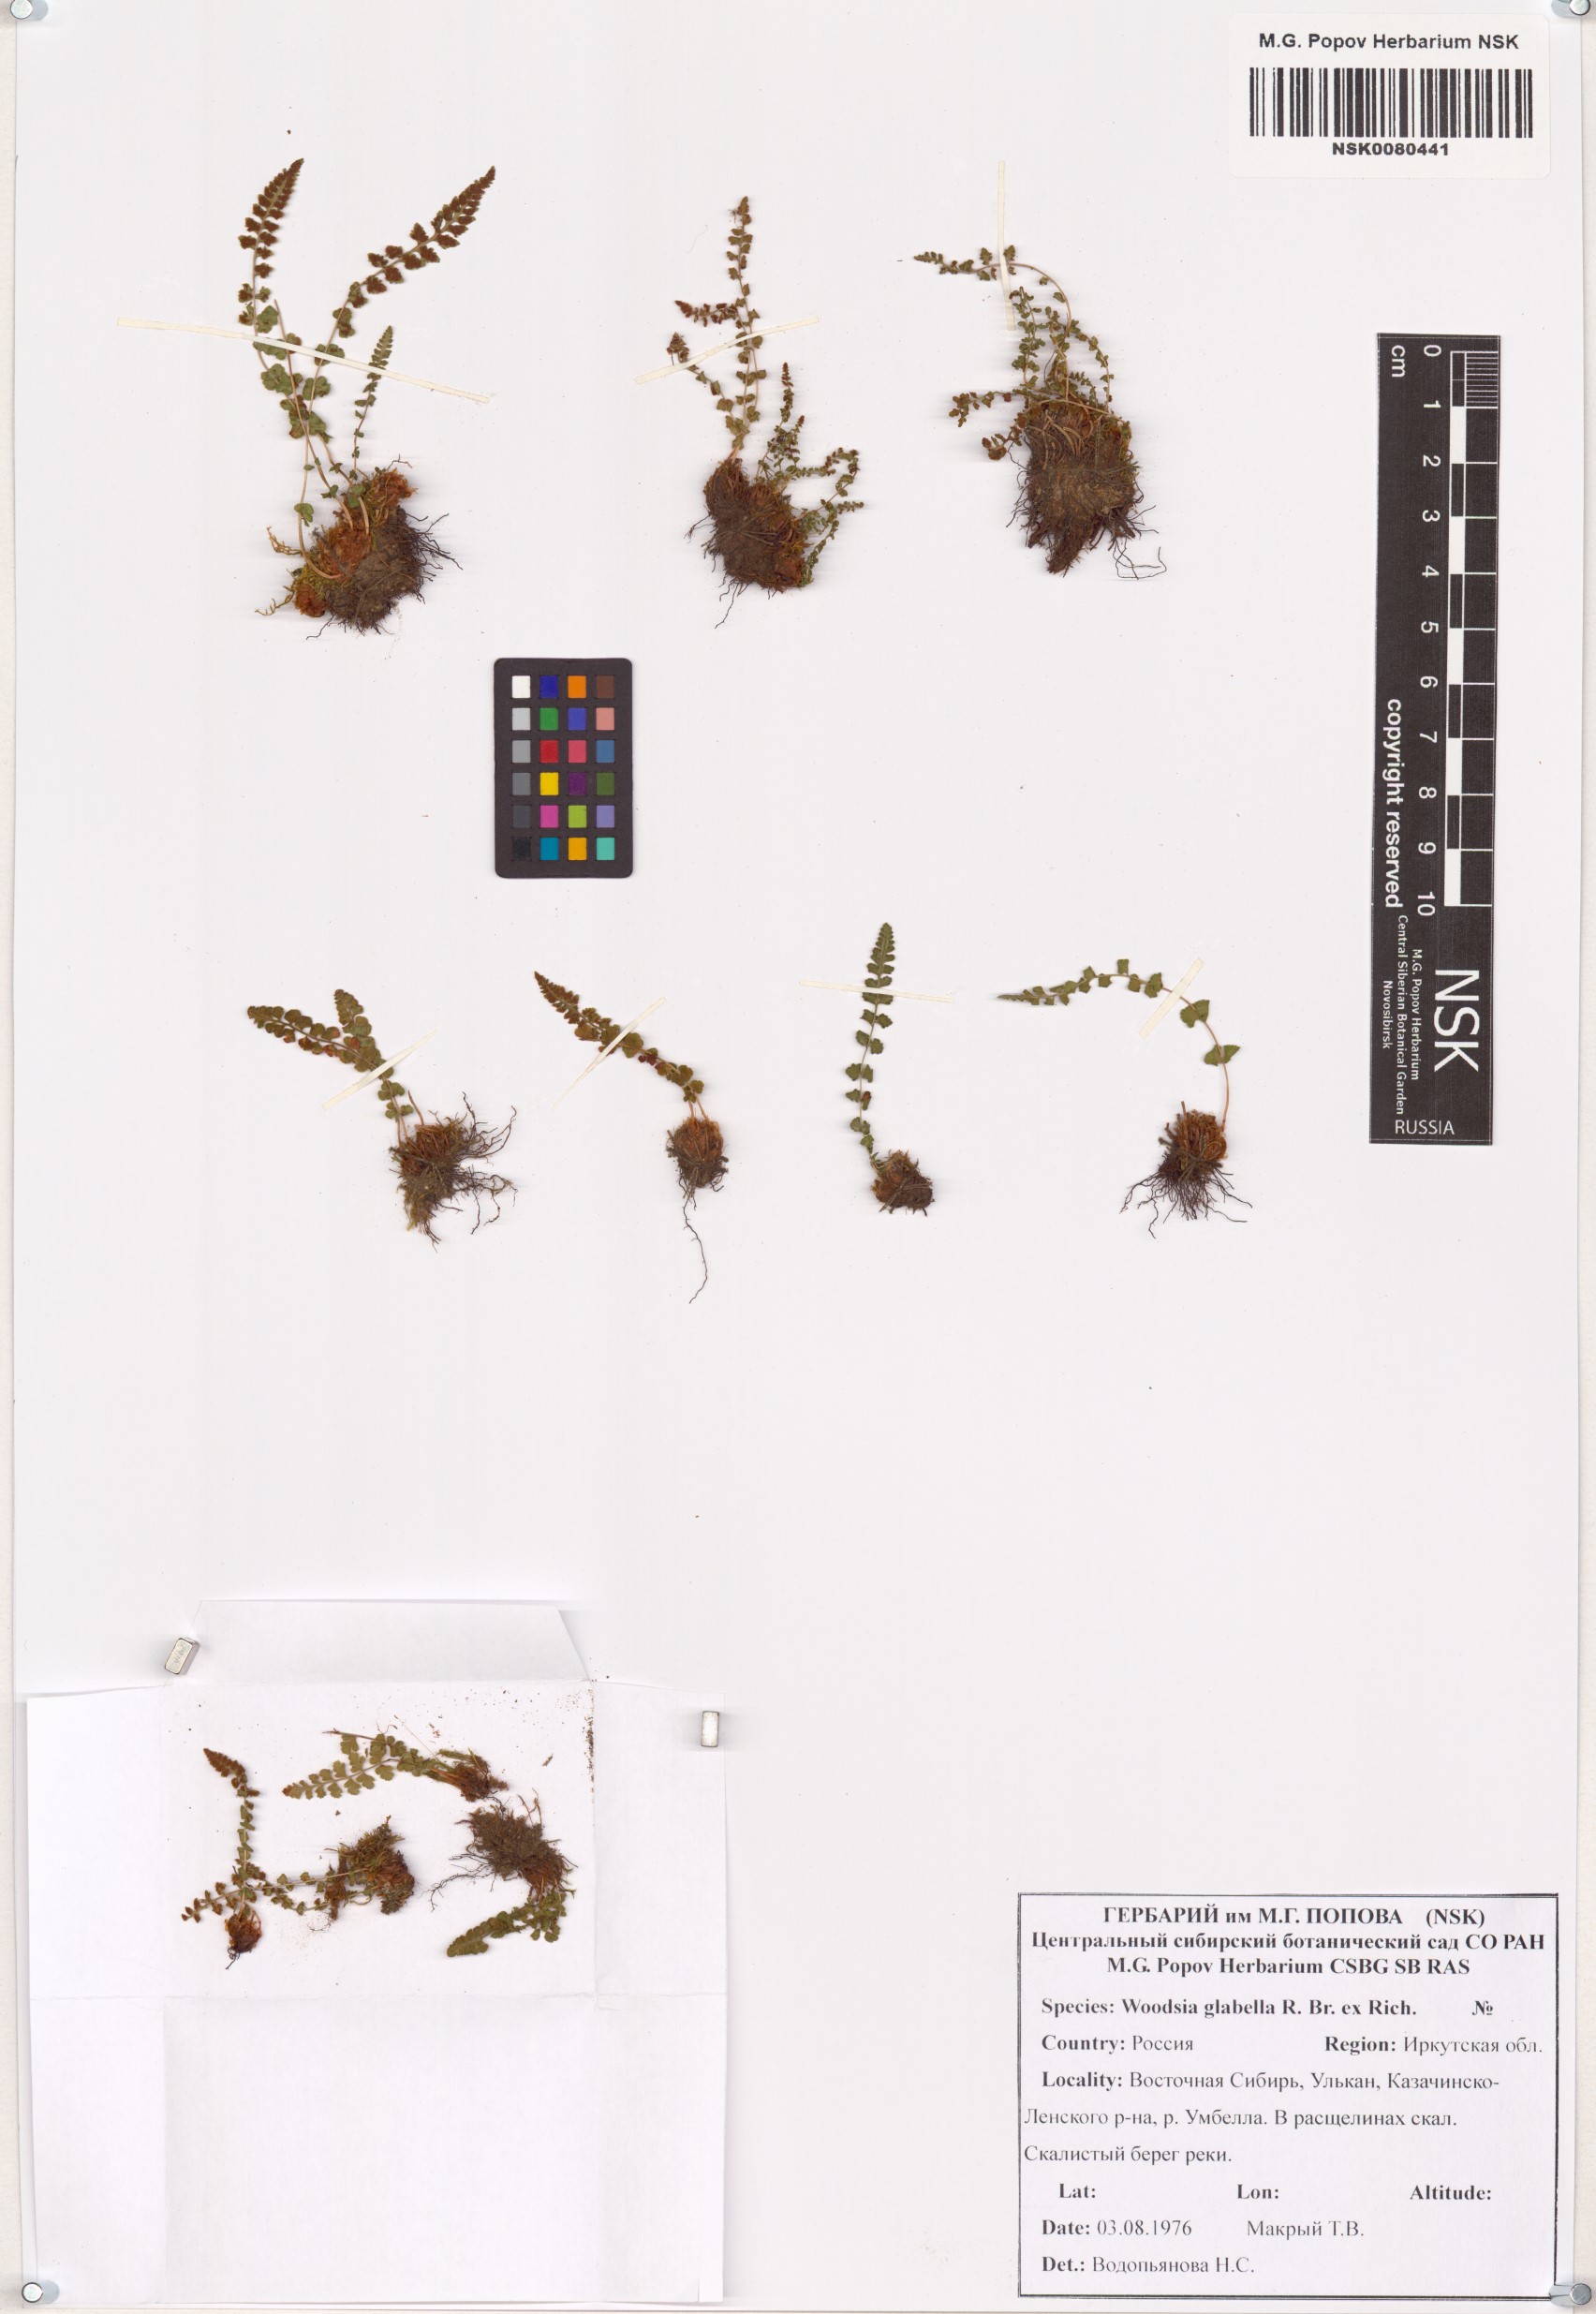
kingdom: Plantae
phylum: Tracheophyta
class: Polypodiopsida
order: Polypodiales
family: Woodsiaceae
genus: Woodsia
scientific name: Woodsia glabella
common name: Smooth woodsia
